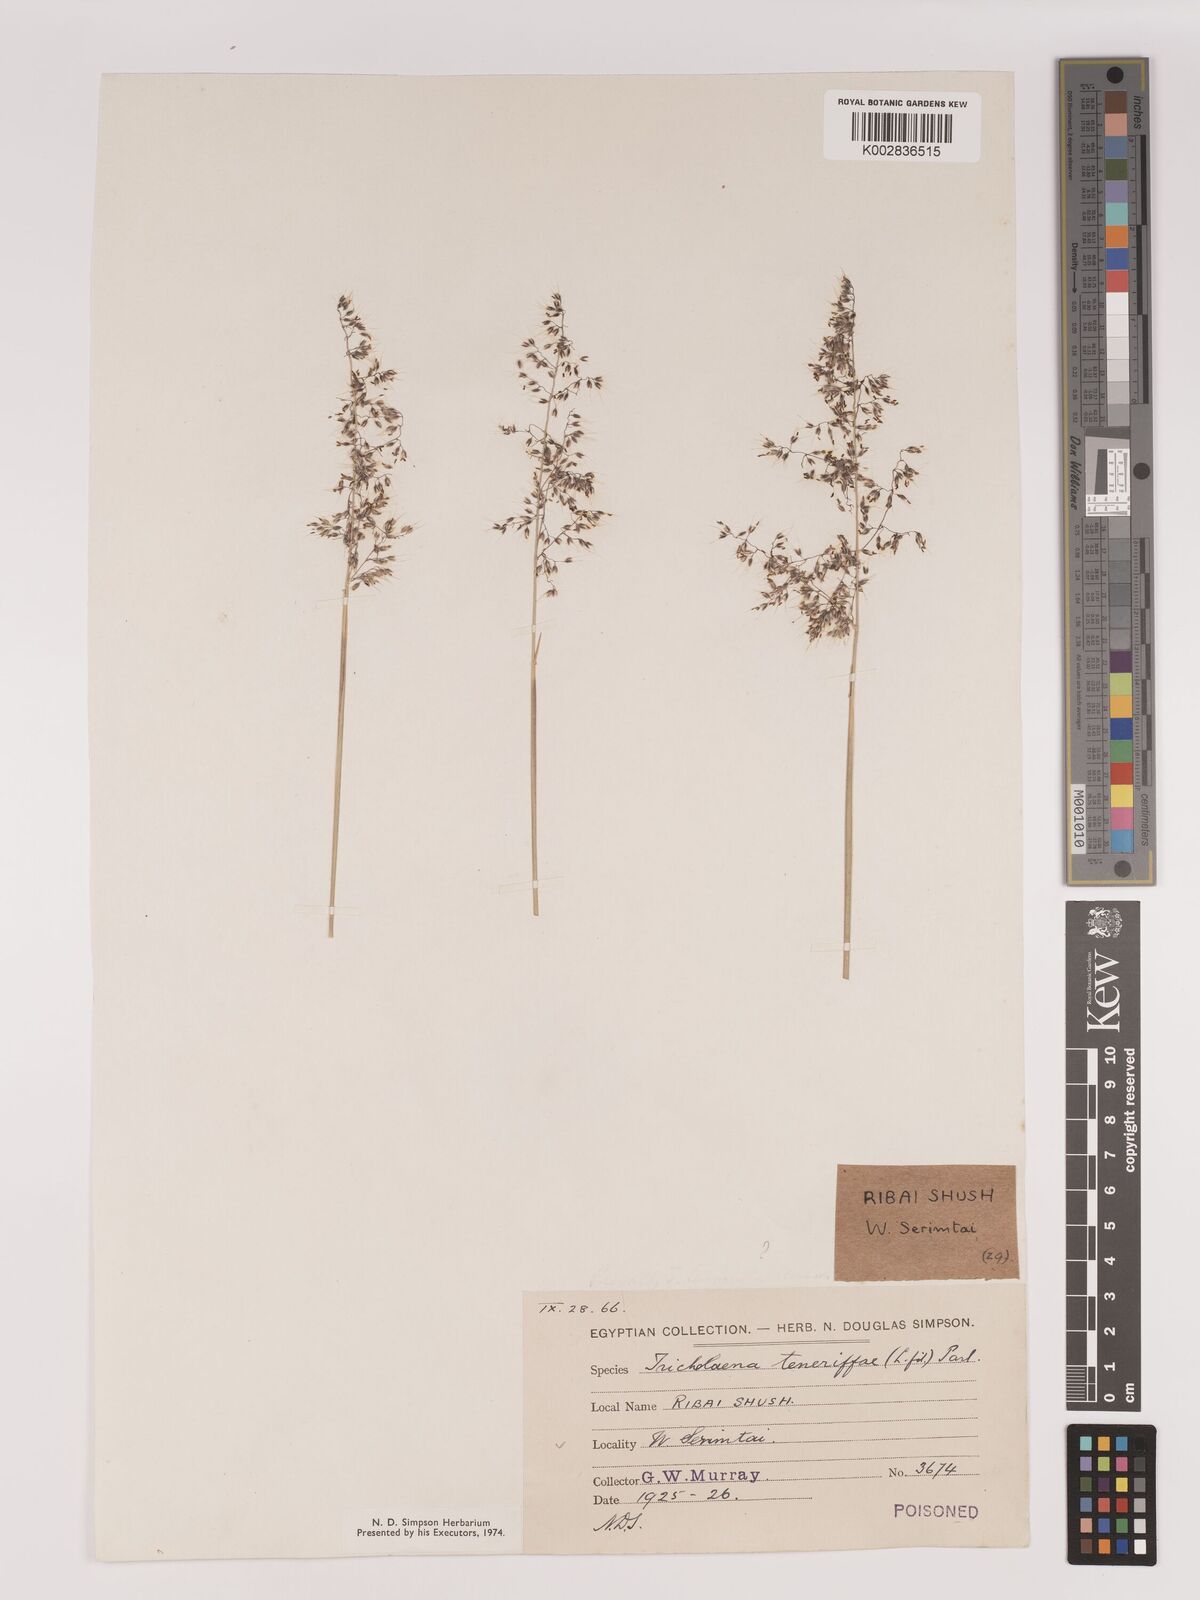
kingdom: Plantae
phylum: Tracheophyta
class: Liliopsida
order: Poales
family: Poaceae
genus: Tricholaena
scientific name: Tricholaena teneriffae
